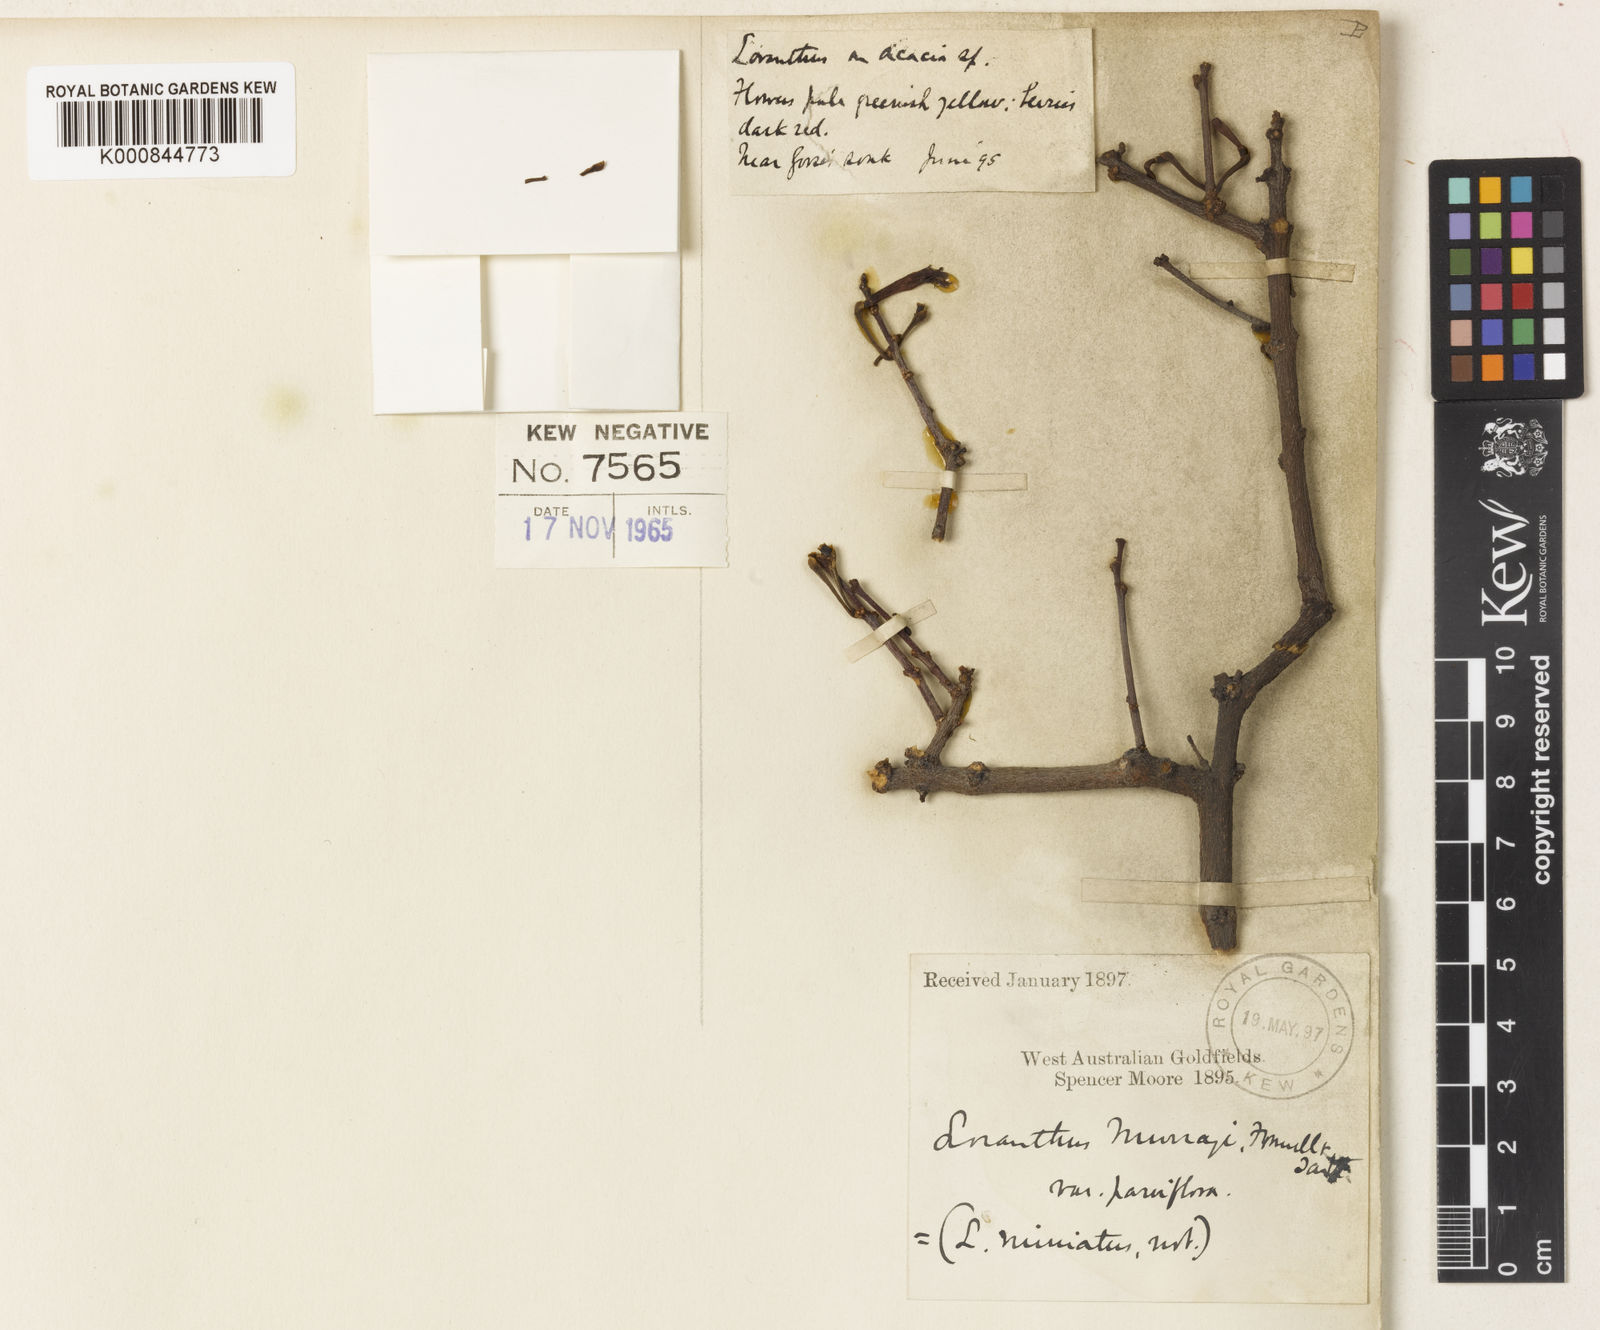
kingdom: Plantae
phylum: Tracheophyta
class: Magnoliopsida
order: Santalales
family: Loranthaceae
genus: Lysiana
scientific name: Lysiana murrayi
